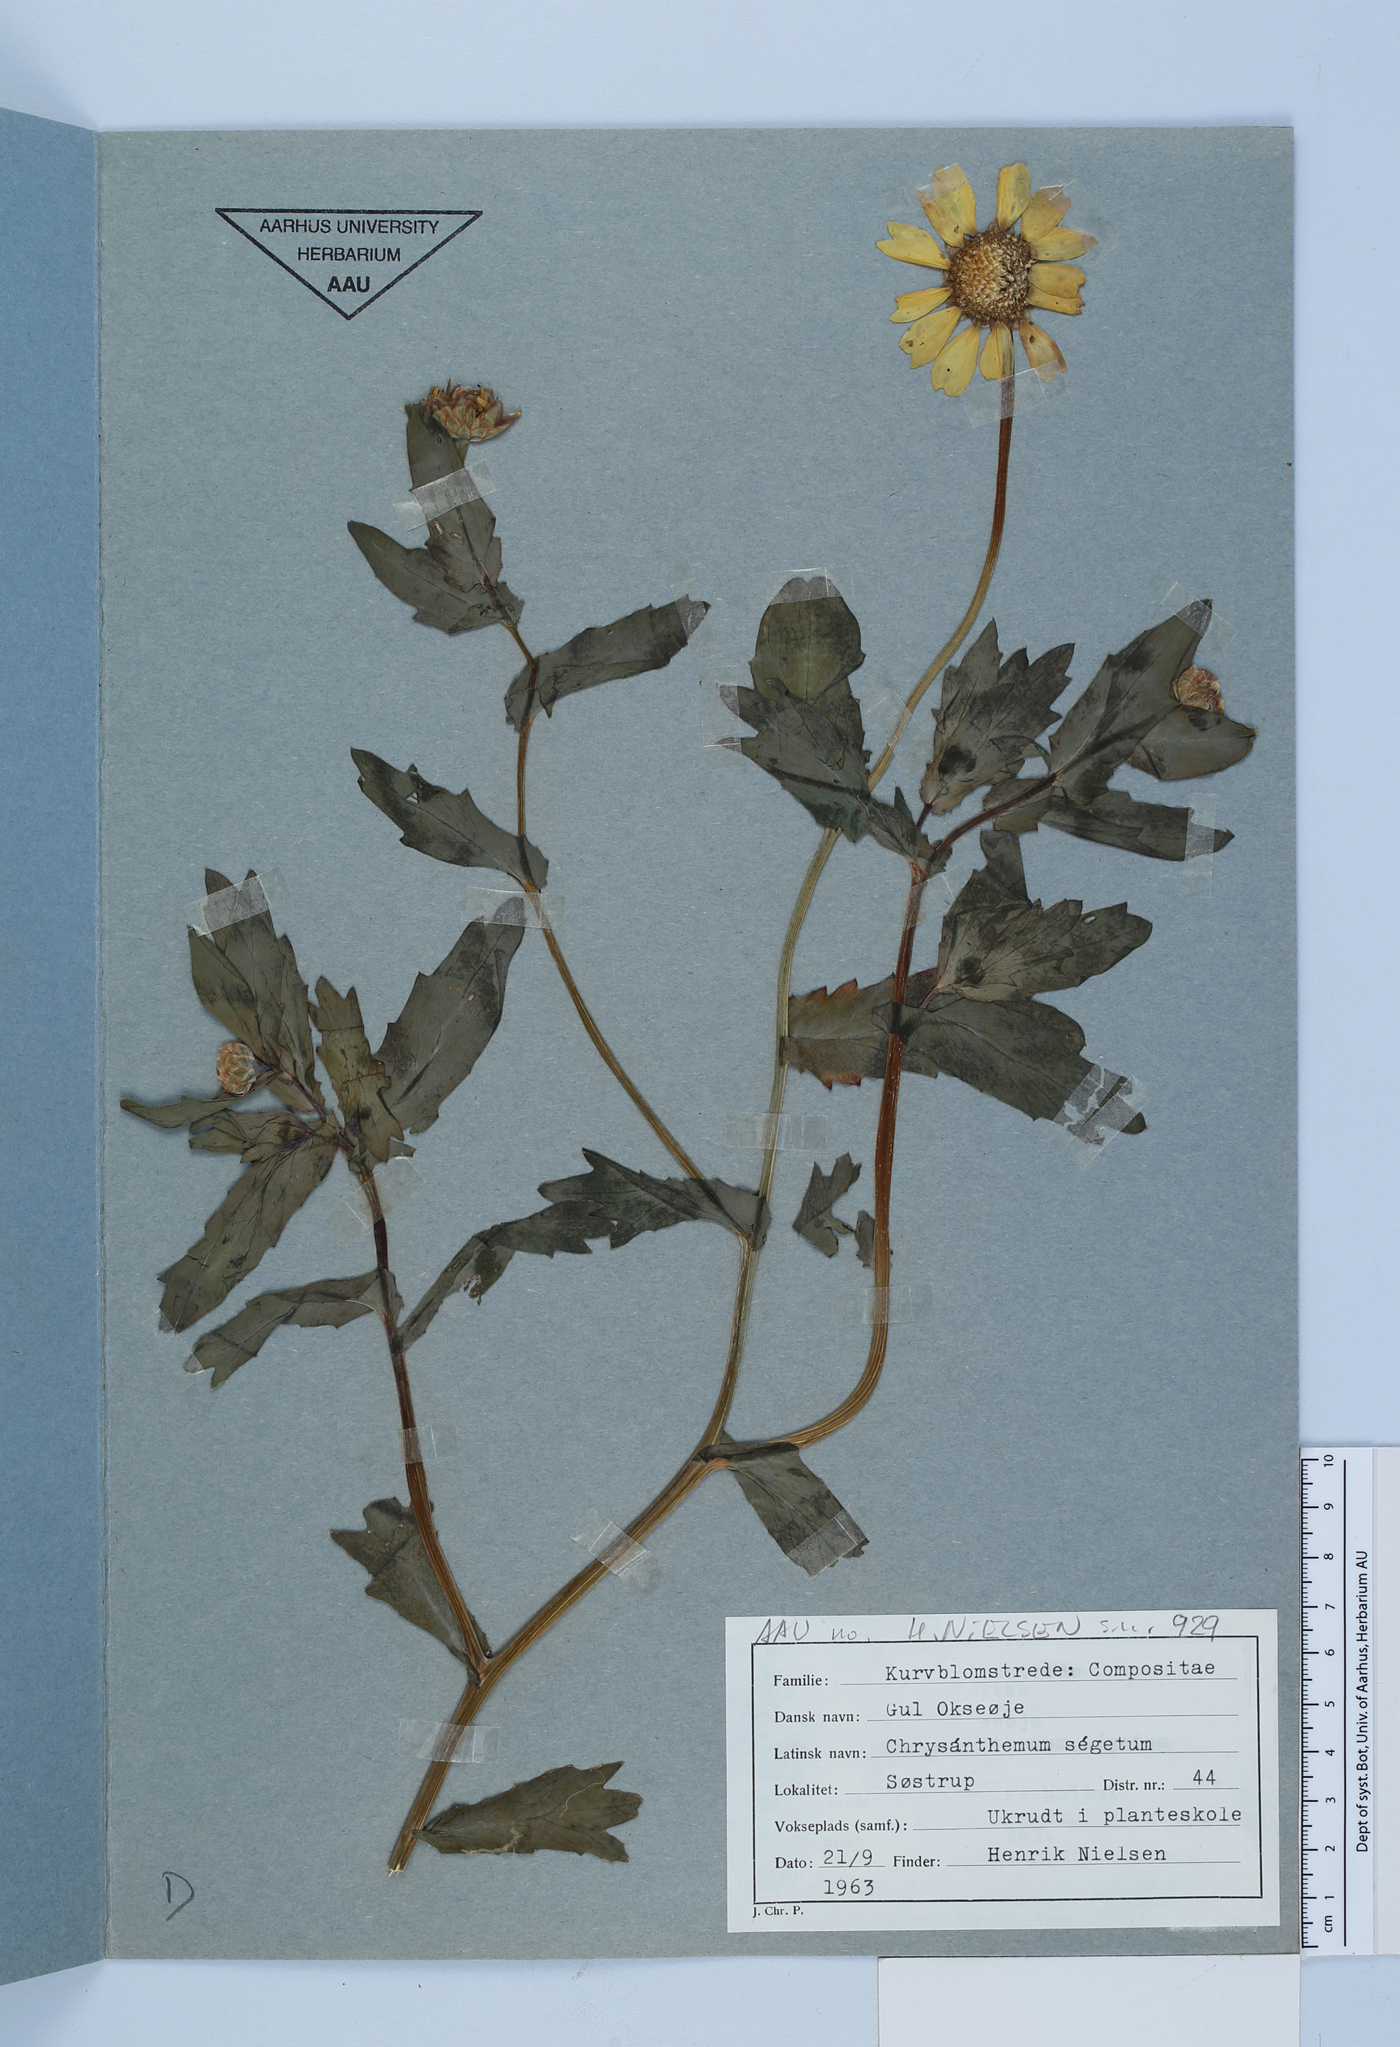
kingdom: Plantae
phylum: Tracheophyta
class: Magnoliopsida
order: Asterales
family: Asteraceae
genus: Glebionis
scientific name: Glebionis segetum
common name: Corndaisy
